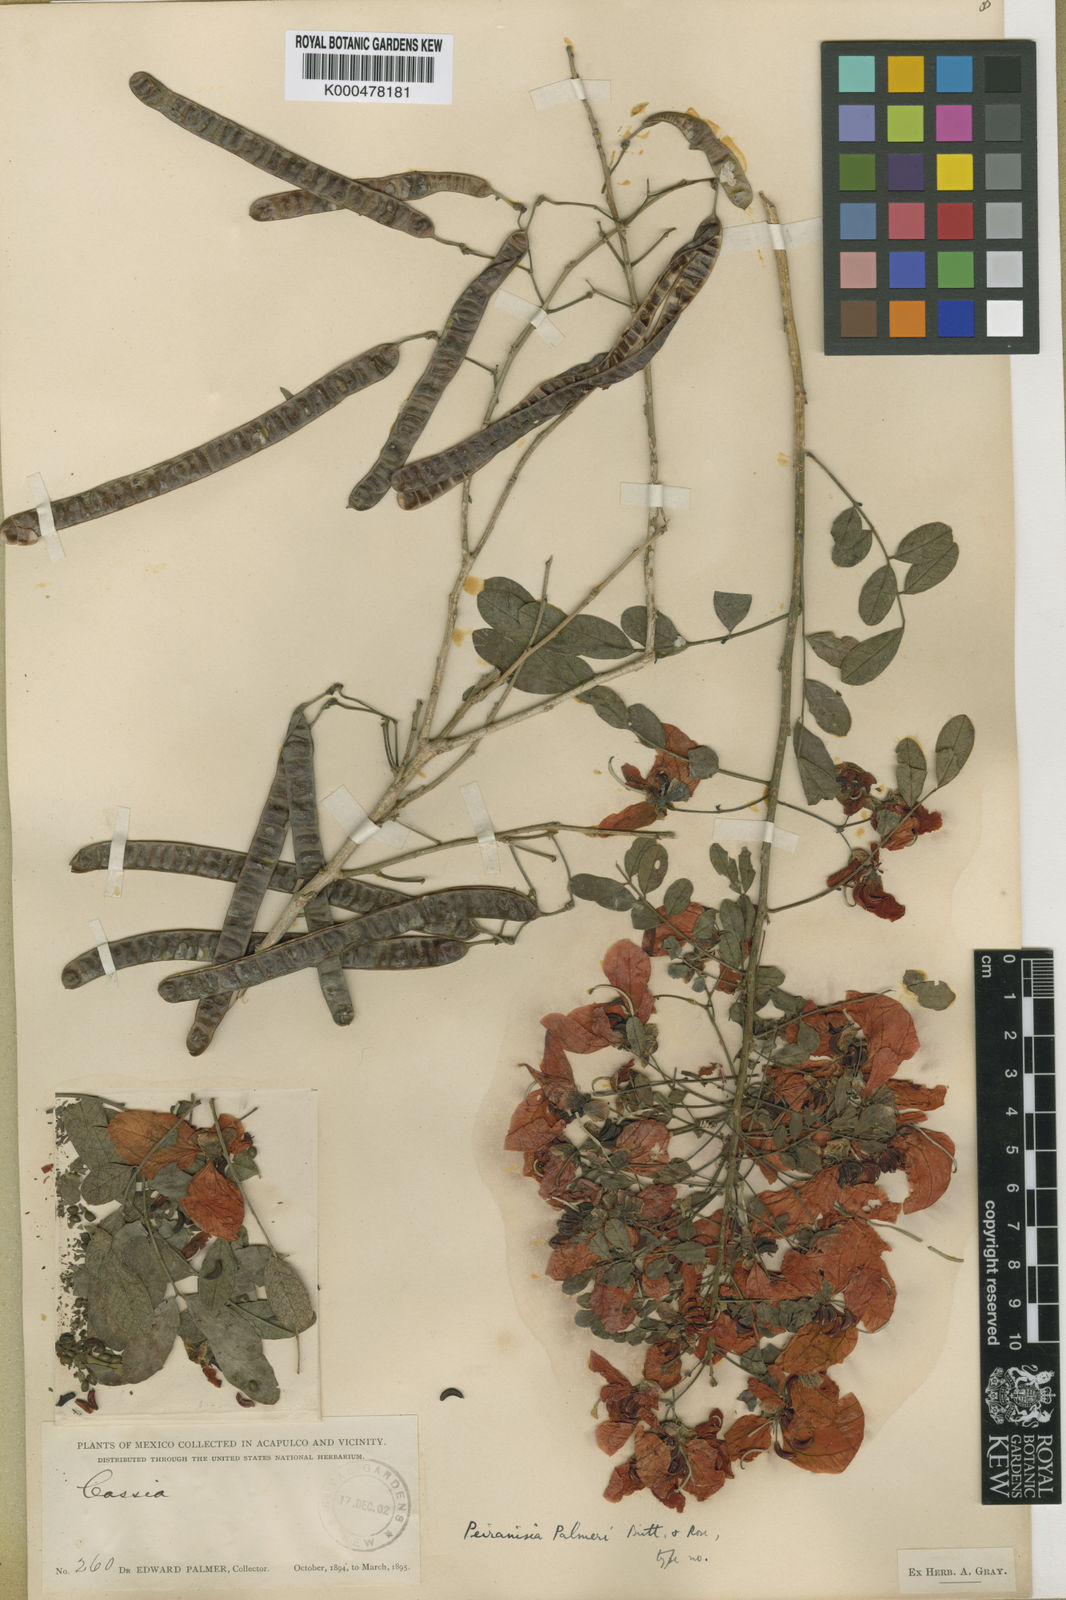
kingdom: Plantae
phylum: Tracheophyta
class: Magnoliopsida
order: Fabales
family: Fabaceae
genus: Senna
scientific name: Senna pallida
